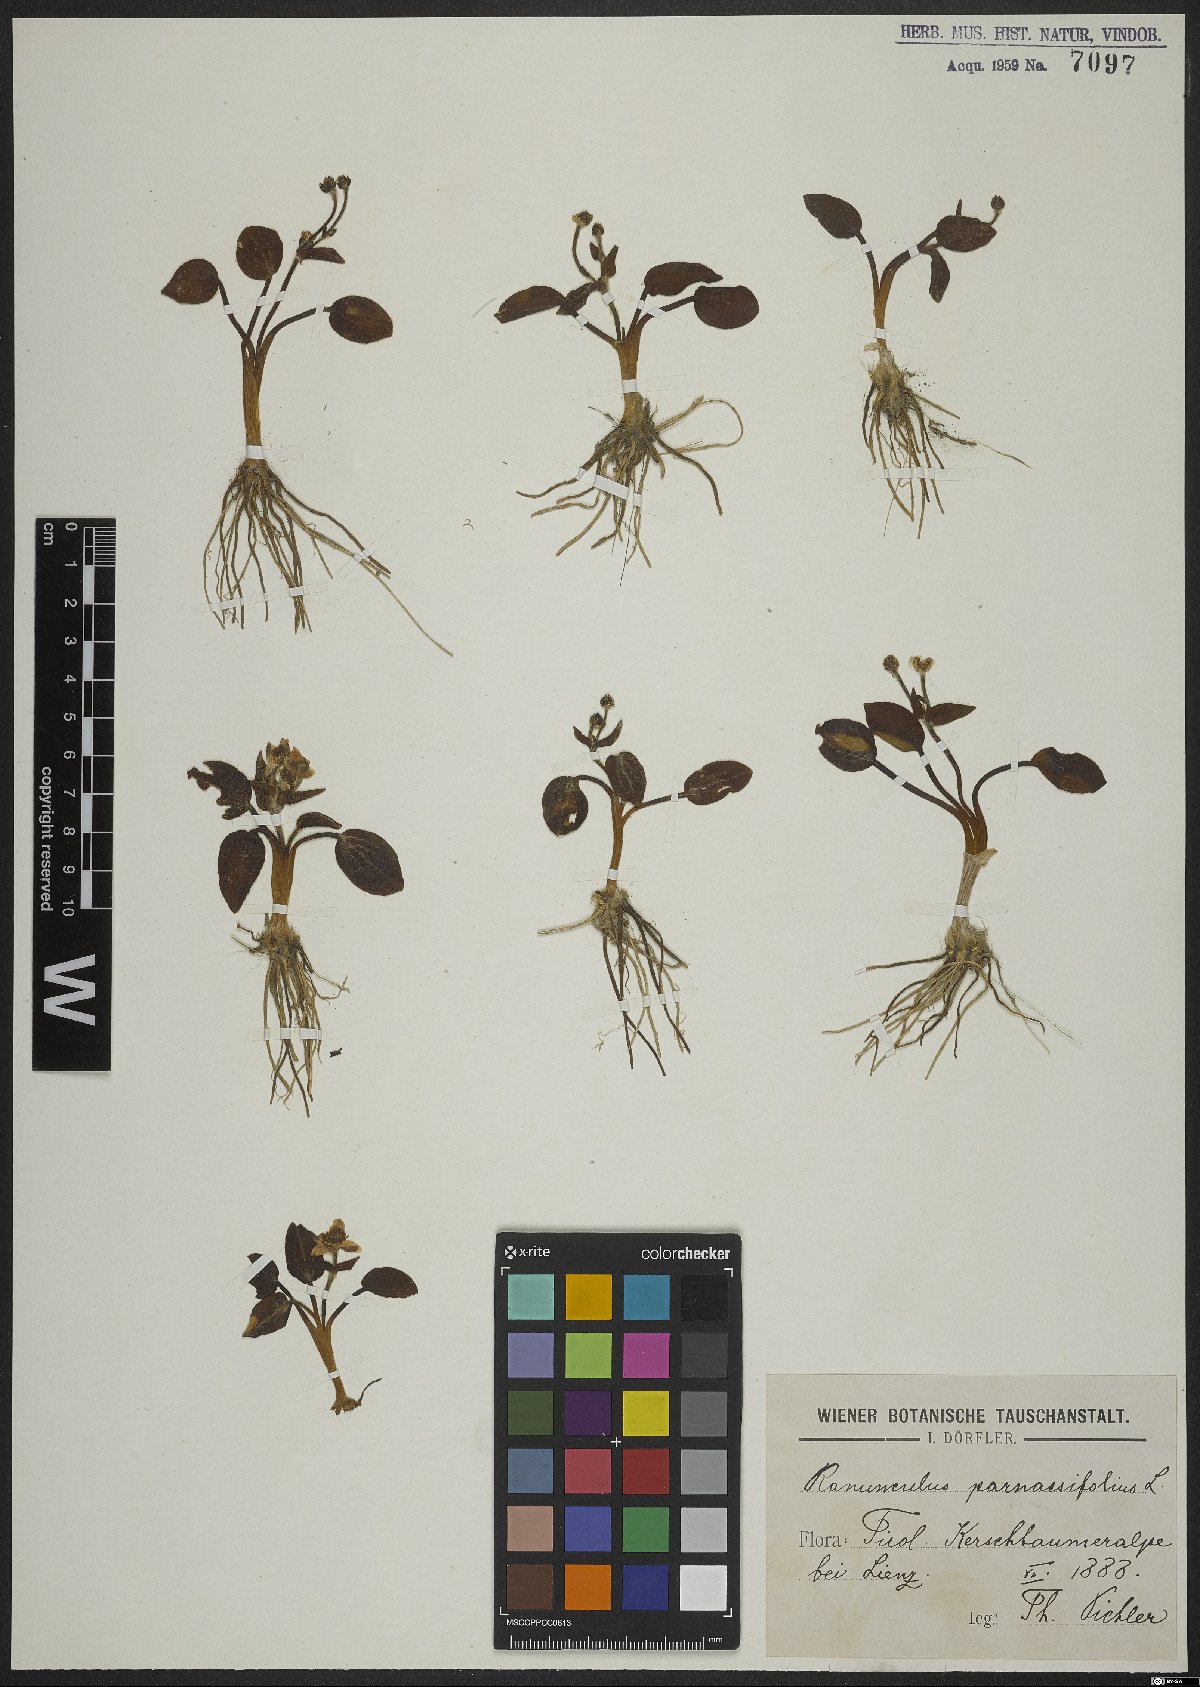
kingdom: Plantae
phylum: Tracheophyta
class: Magnoliopsida
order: Ranunculales
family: Ranunculaceae
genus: Ranunculus
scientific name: Ranunculus parnassiifolius
